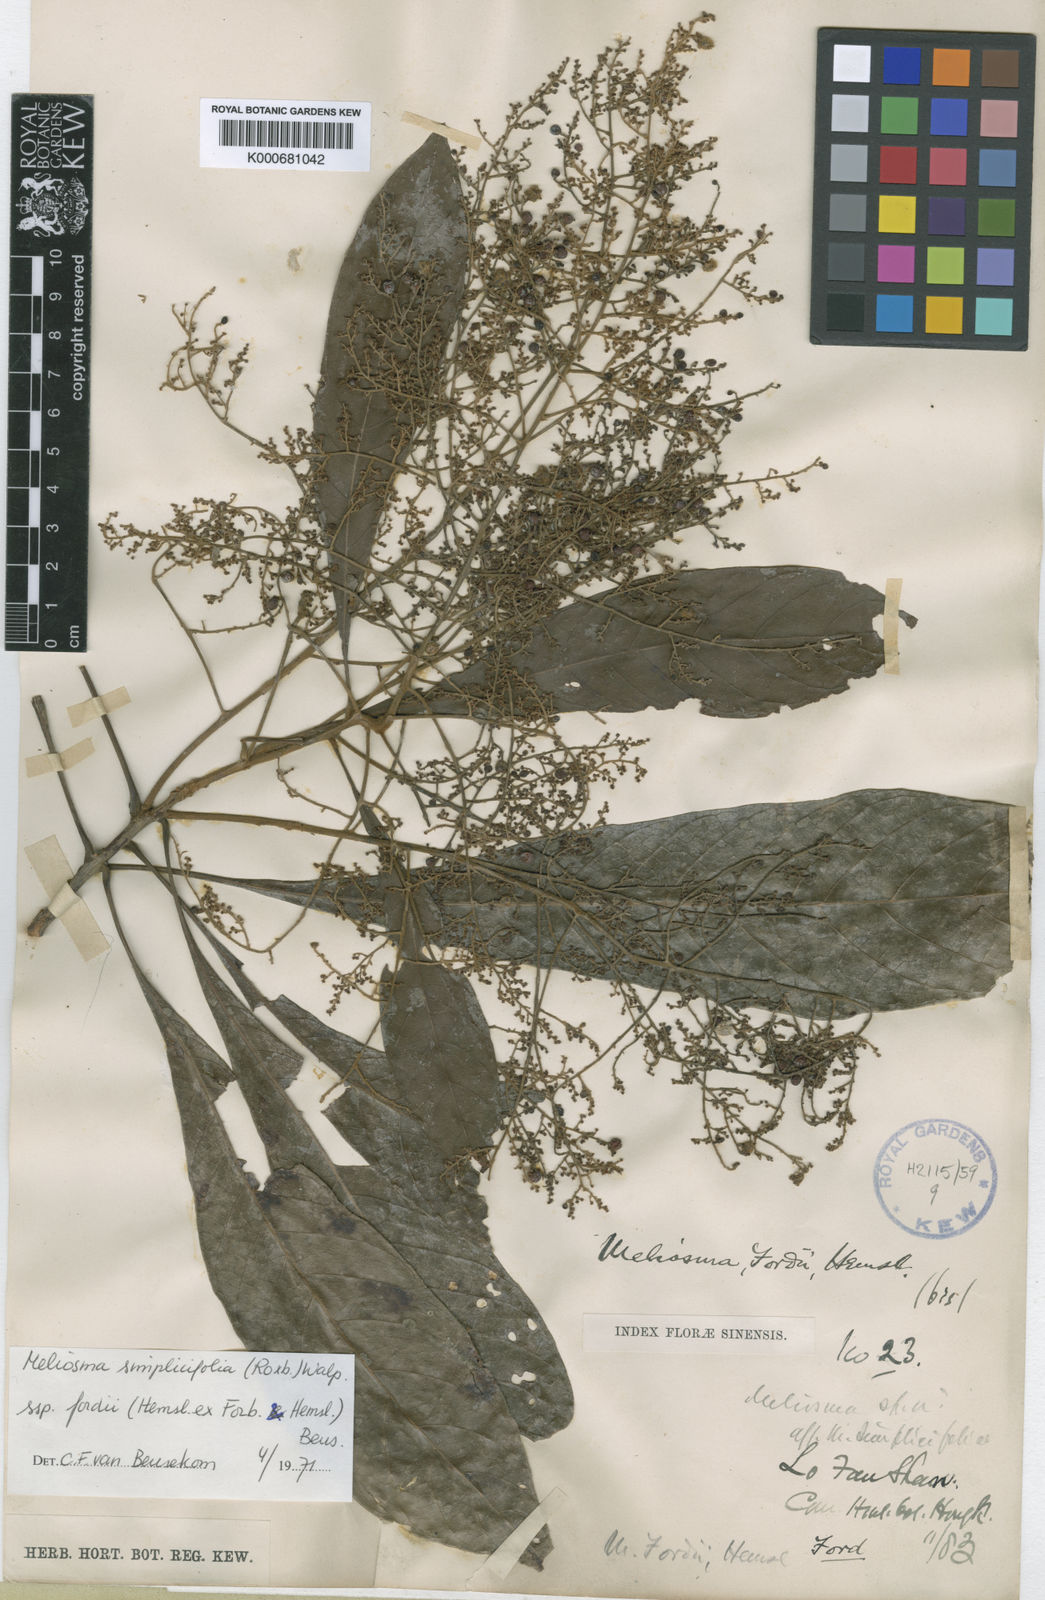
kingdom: Plantae
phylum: Tracheophyta
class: Magnoliopsida
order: Proteales
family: Sabiaceae
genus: Meliosma
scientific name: Meliosma fordii
